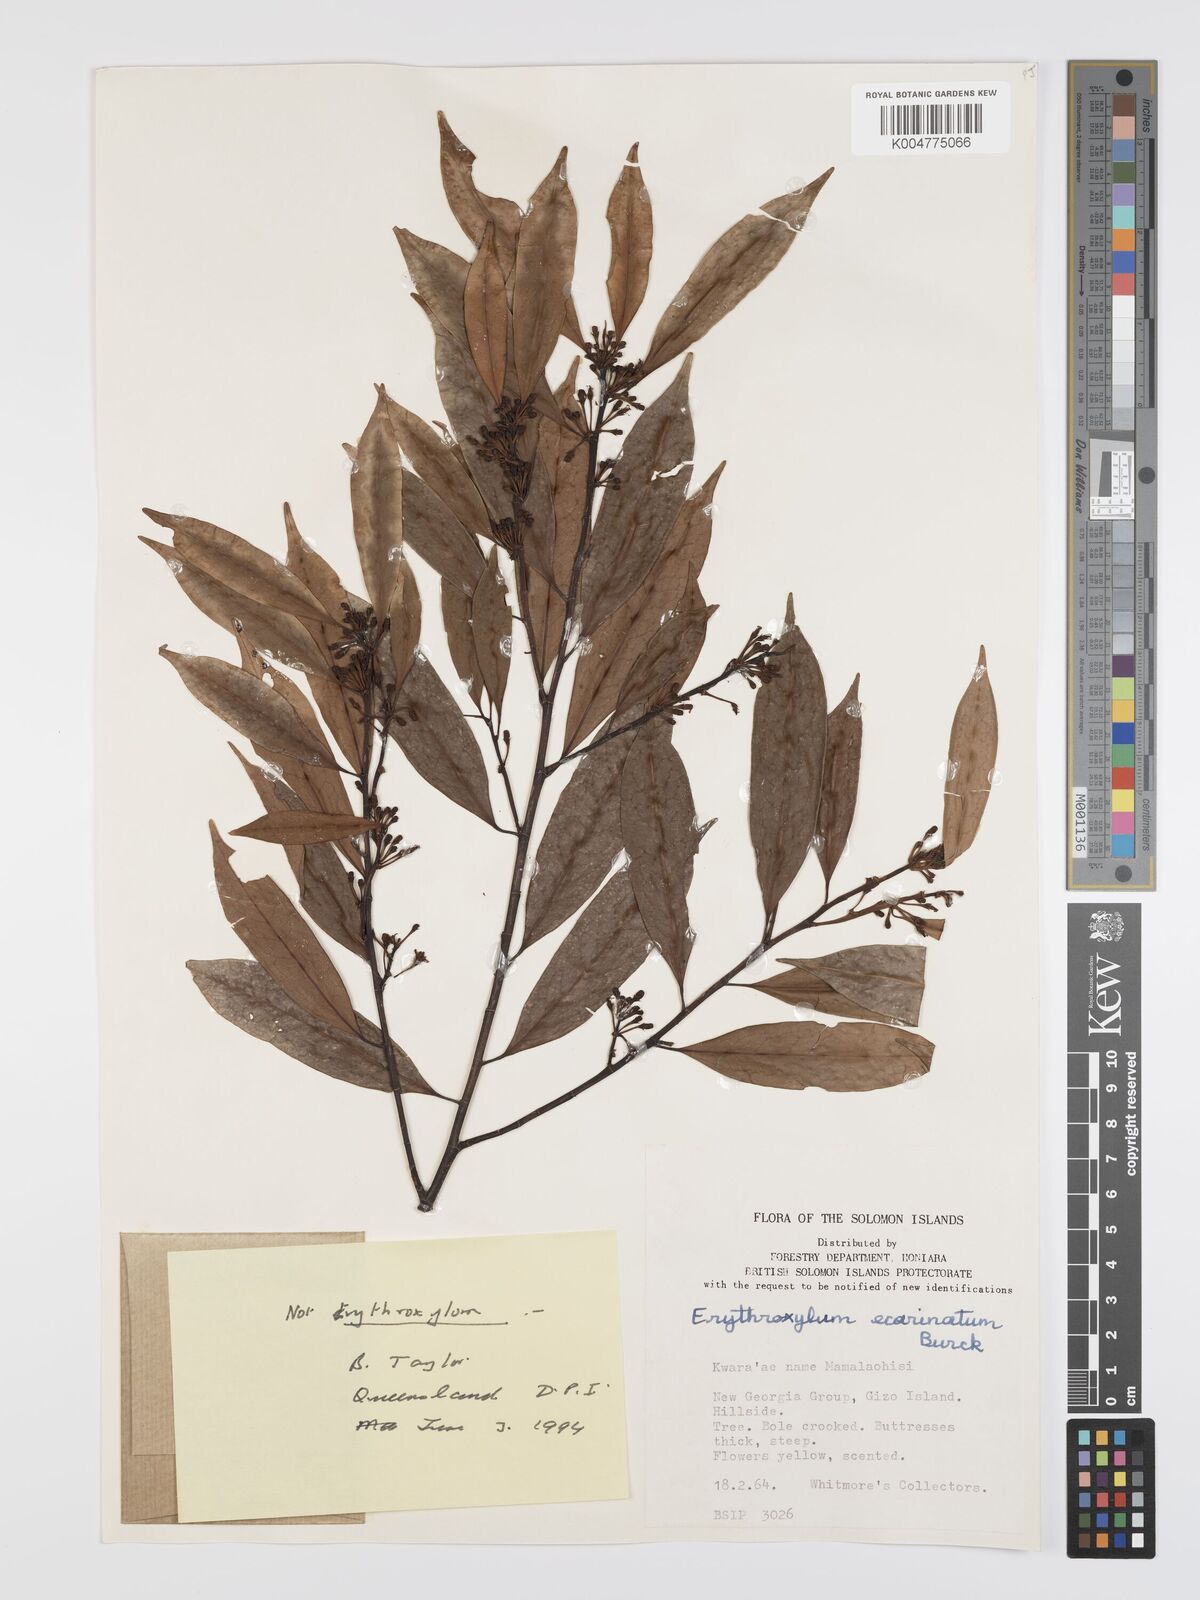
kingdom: Plantae
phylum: Tracheophyta
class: Magnoliopsida
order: Malpighiales
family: Erythroxylaceae
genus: Erythroxylum
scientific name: Erythroxylum ecarinatum
